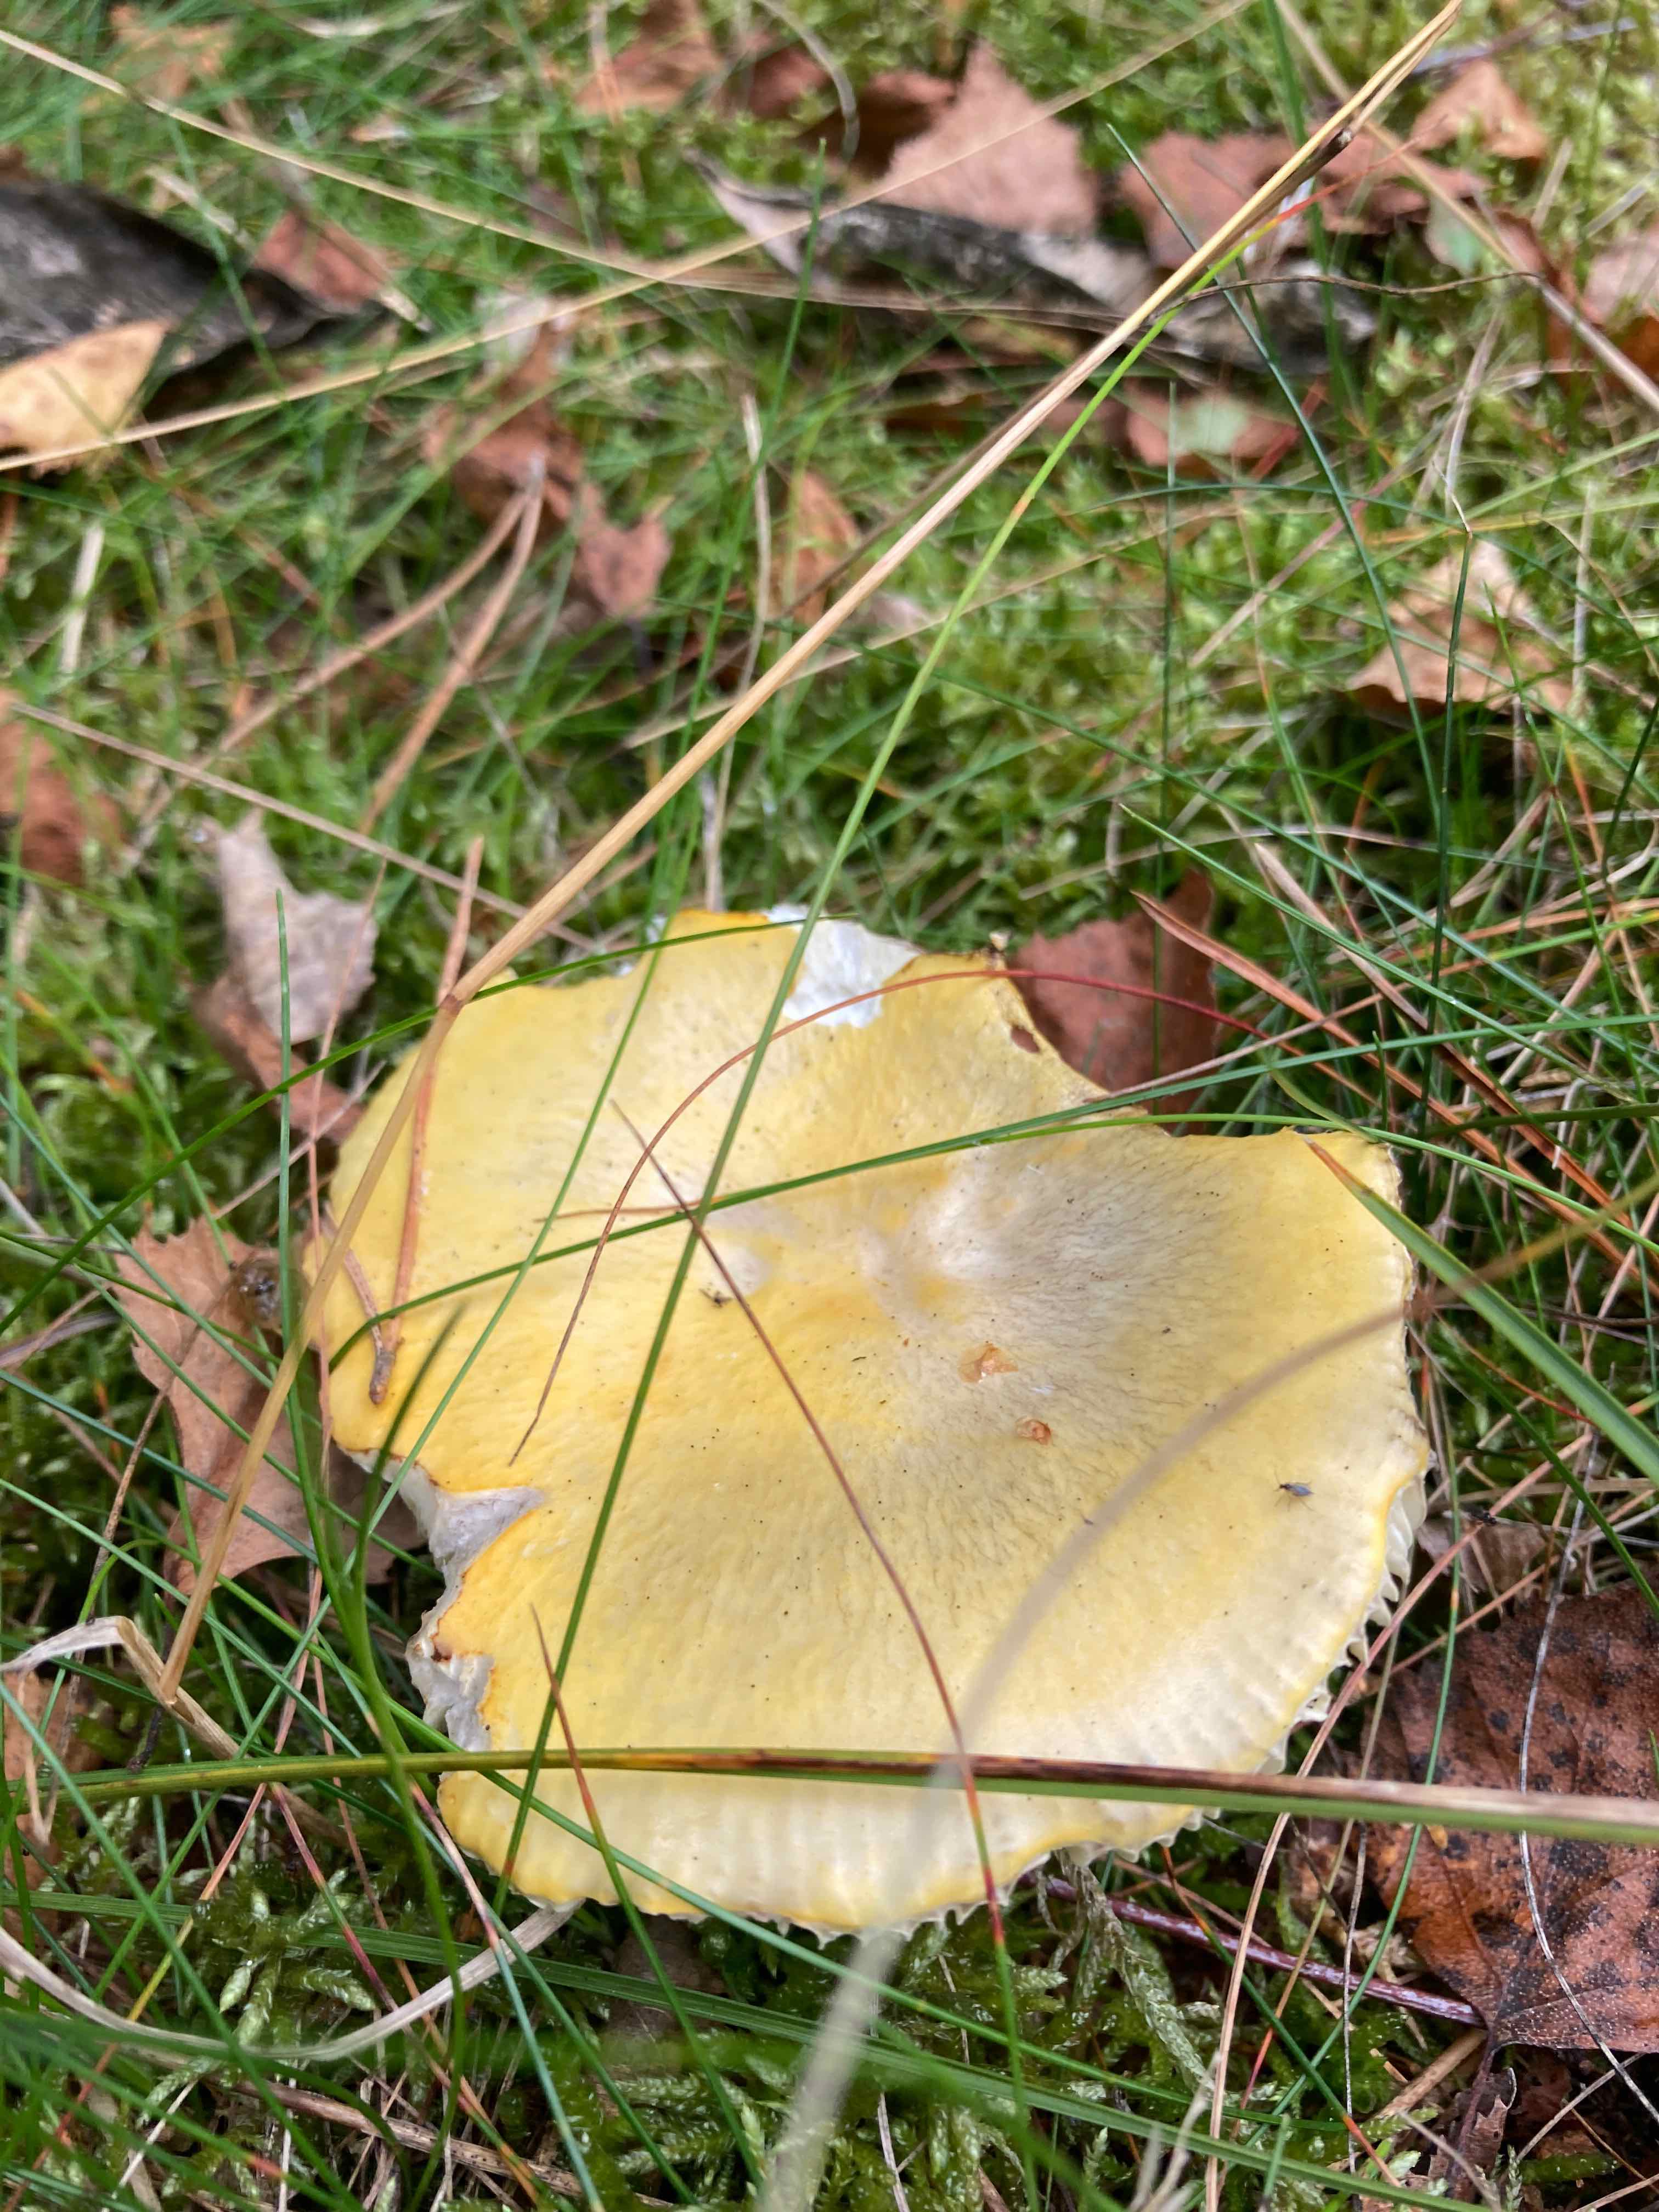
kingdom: Fungi
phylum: Basidiomycota
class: Agaricomycetes
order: Russulales
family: Russulaceae
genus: Russula
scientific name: Russula claroflava
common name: birke-skørhat
